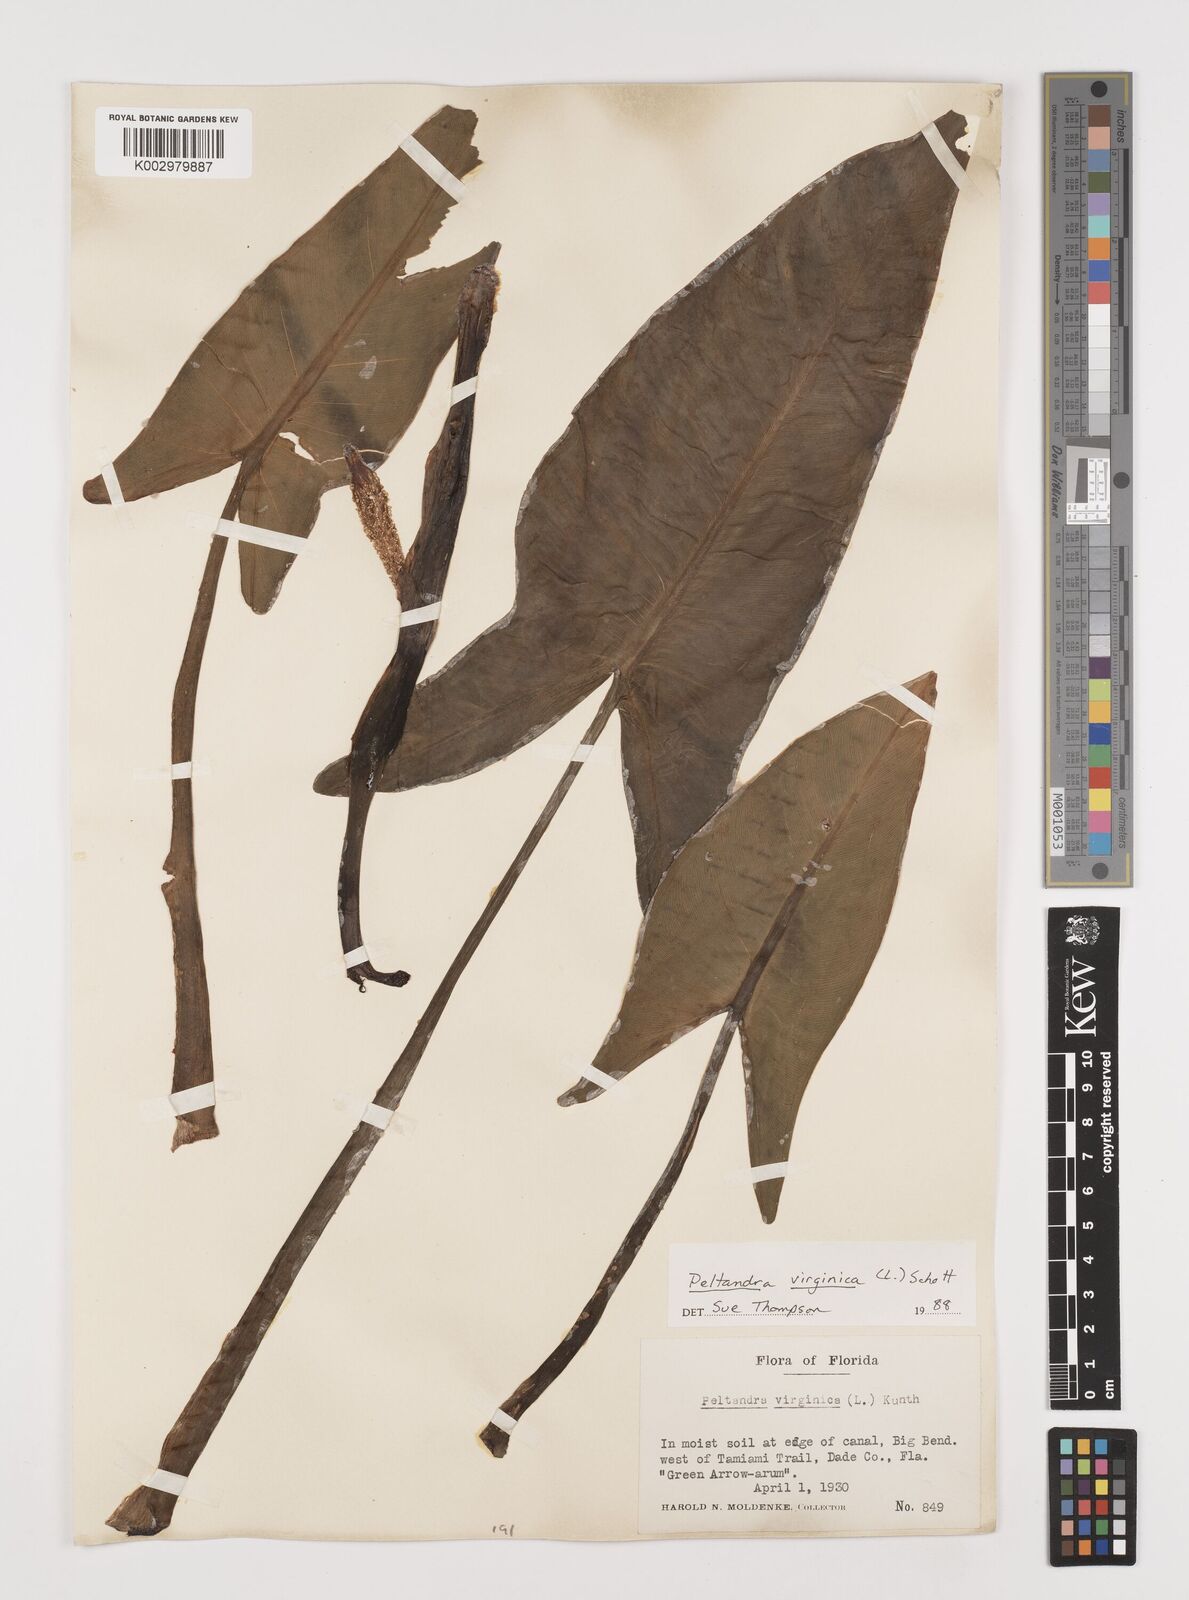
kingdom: Plantae
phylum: Tracheophyta
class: Liliopsida
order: Alismatales
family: Araceae
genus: Peltandra
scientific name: Peltandra virginica
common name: Arrow arum
